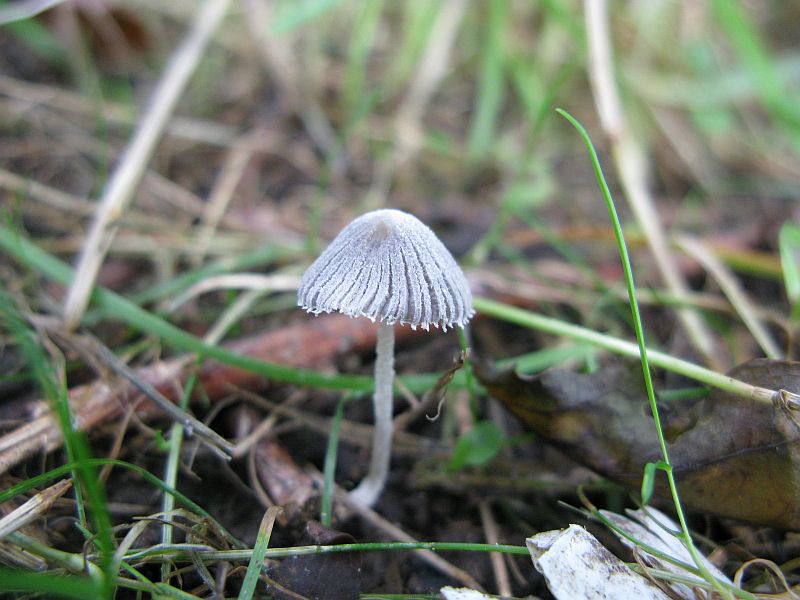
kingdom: Fungi
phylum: Basidiomycota
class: Agaricomycetes
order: Agaricales
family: Psathyrellaceae
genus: Coprinopsis
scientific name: Coprinopsis candidata
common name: hvidklædt blækhat
